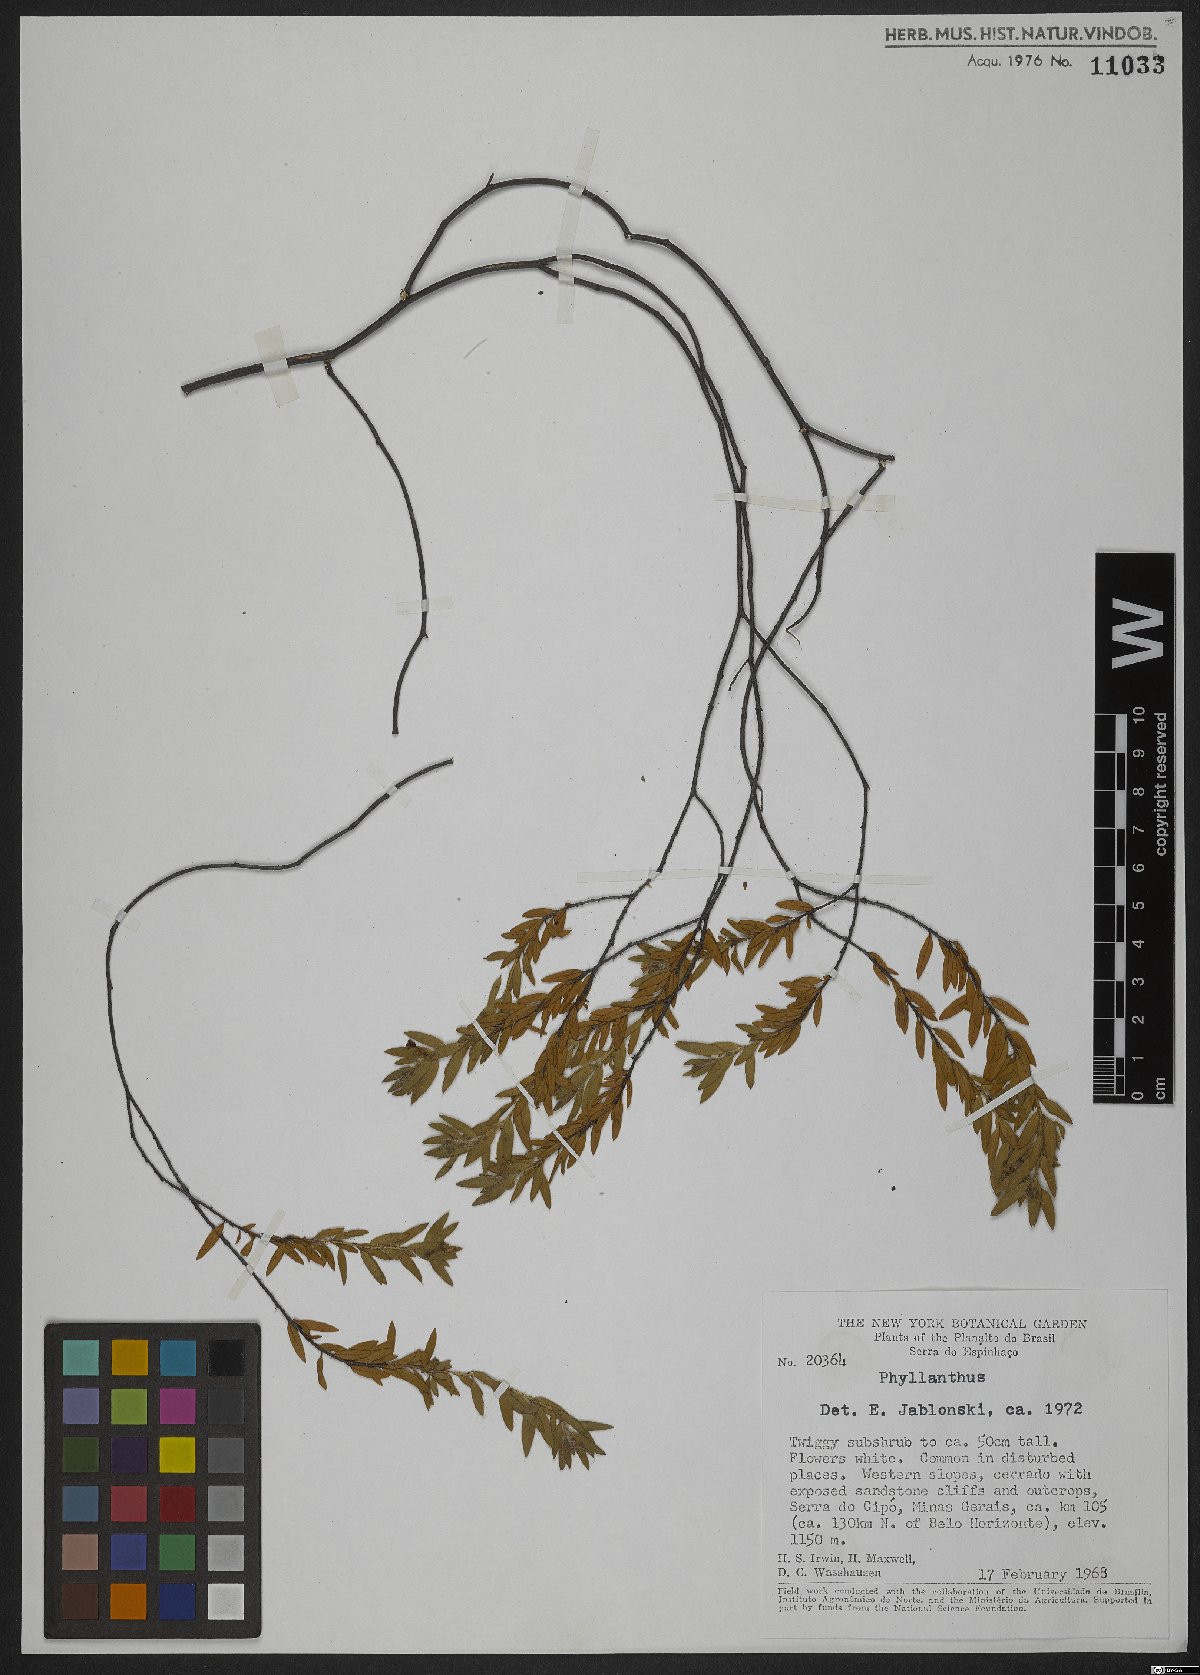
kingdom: Plantae
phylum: Tracheophyta
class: Magnoliopsida
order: Malpighiales
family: Phyllanthaceae
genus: Phyllanthus
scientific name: Phyllanthus
